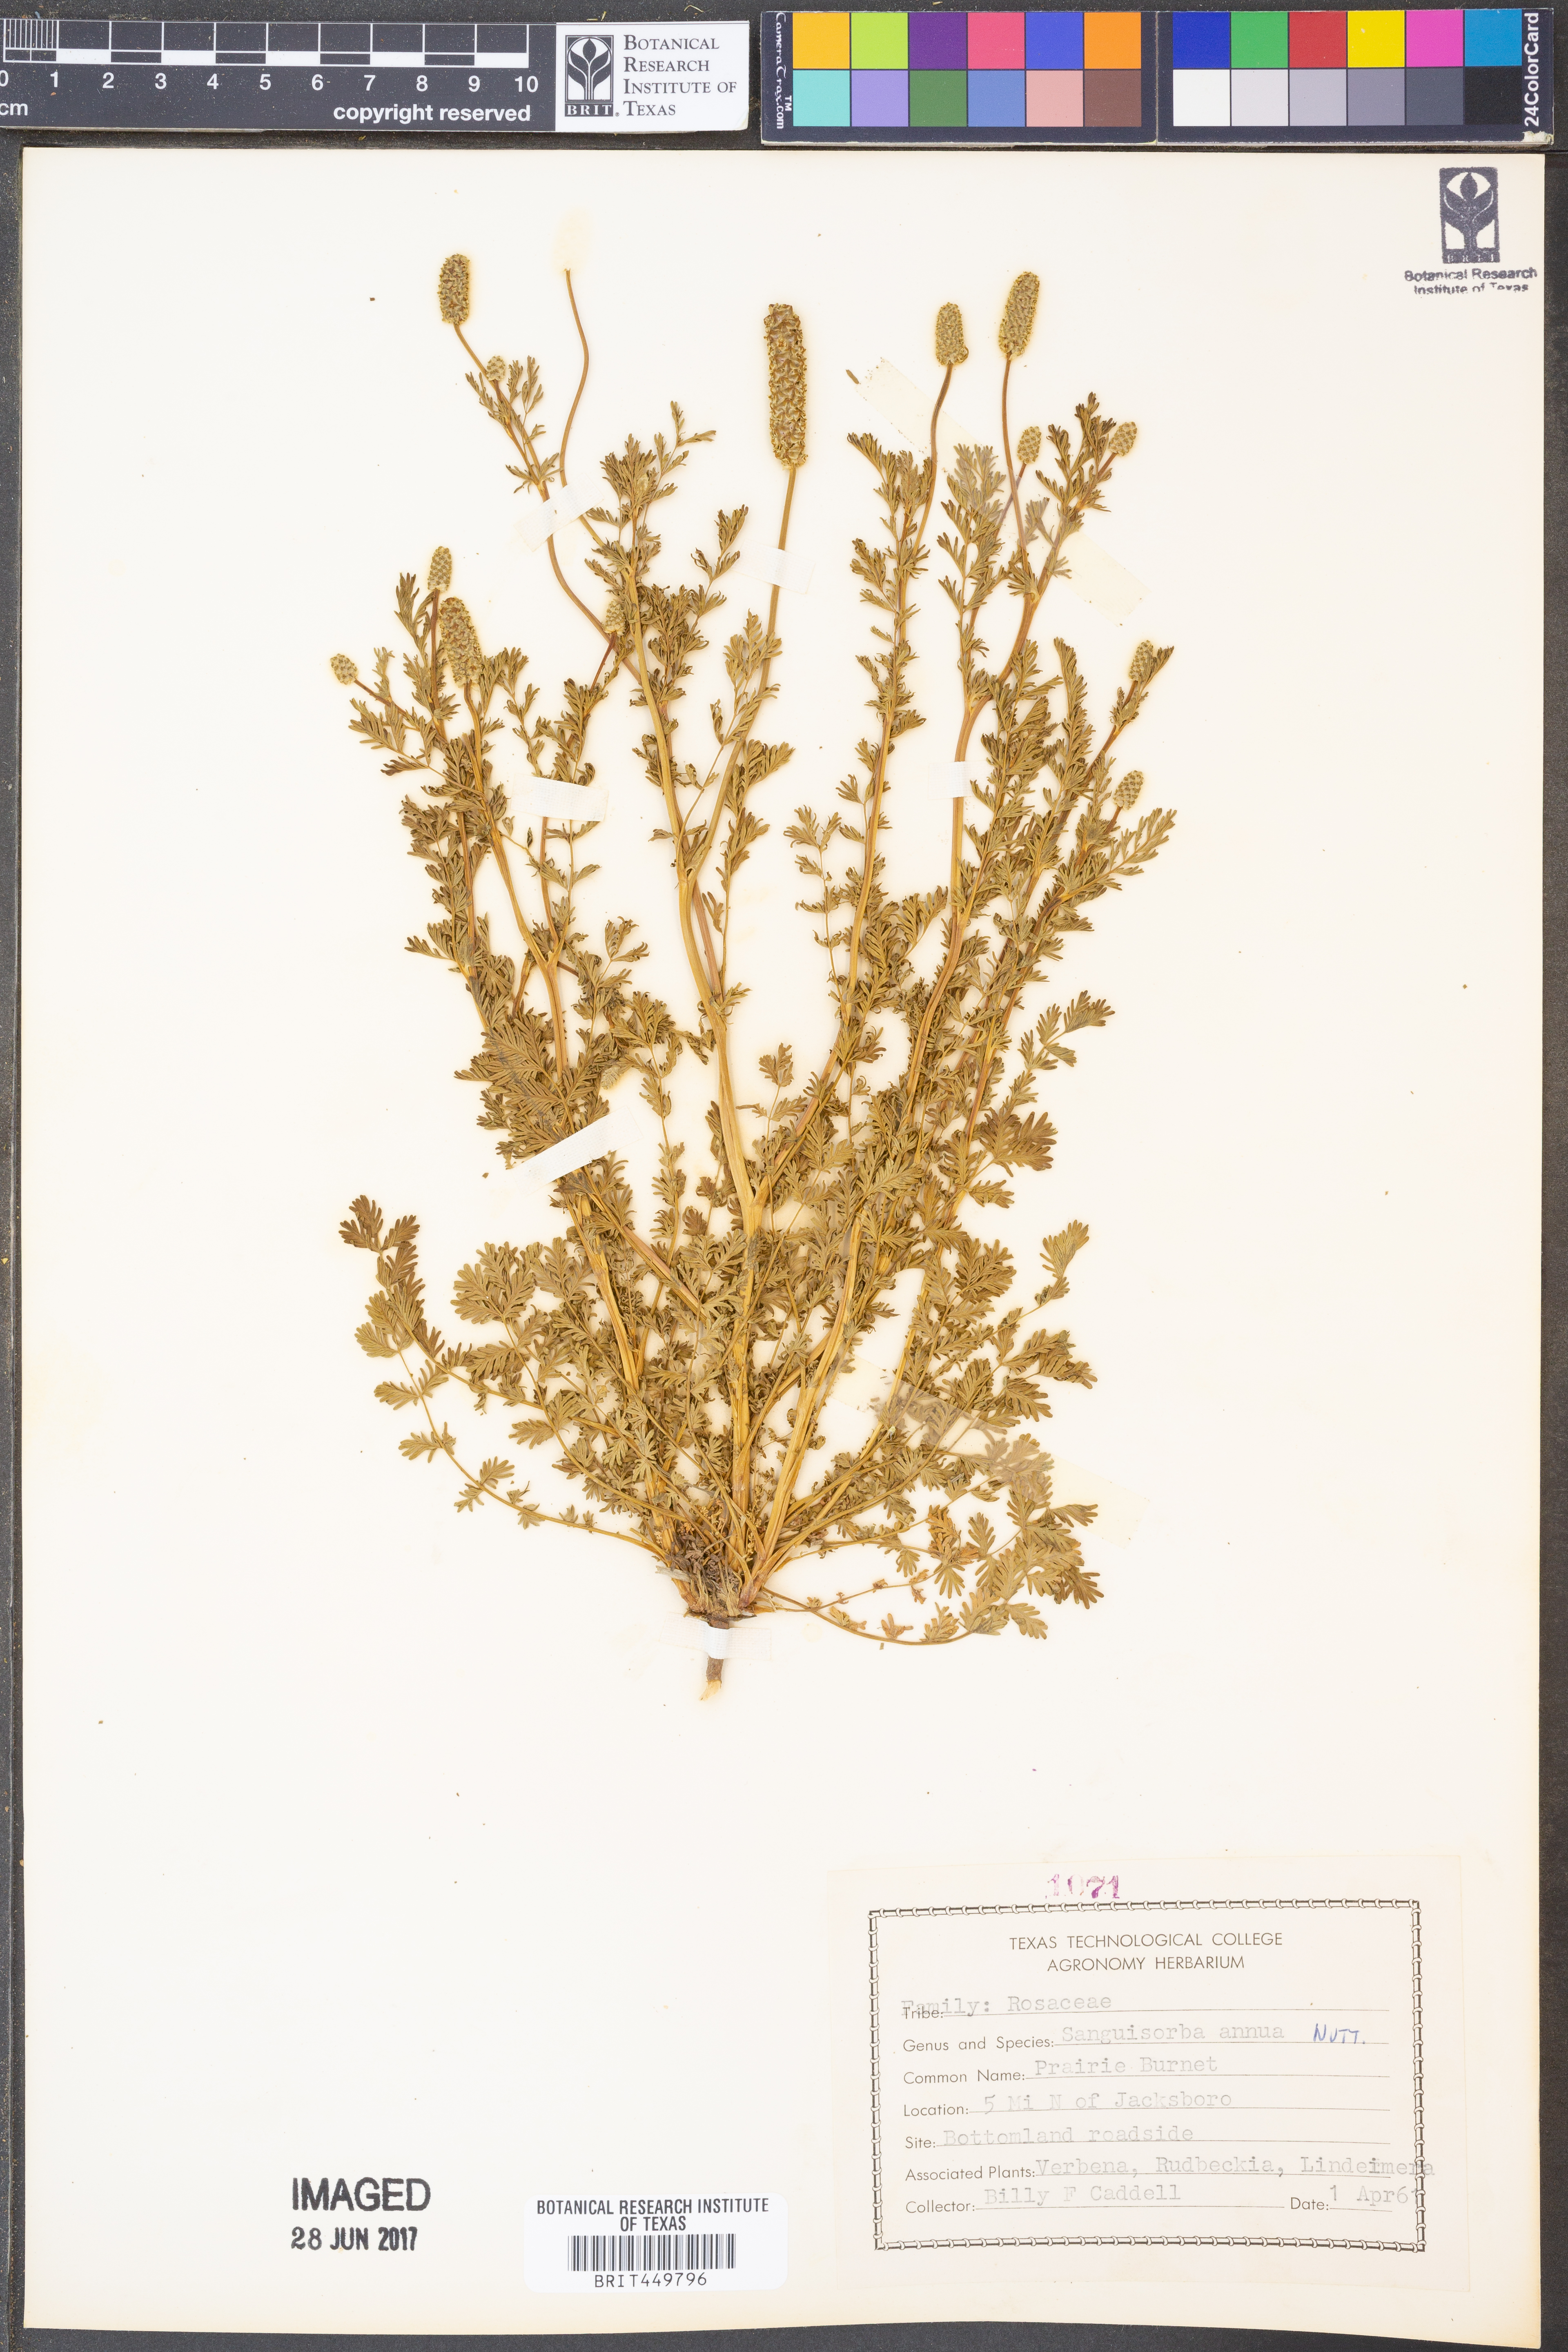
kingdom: Plantae
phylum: Tracheophyta
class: Magnoliopsida
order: Rosales
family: Rosaceae
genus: Poteridium
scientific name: Poteridium annuum
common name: Annual burnet
